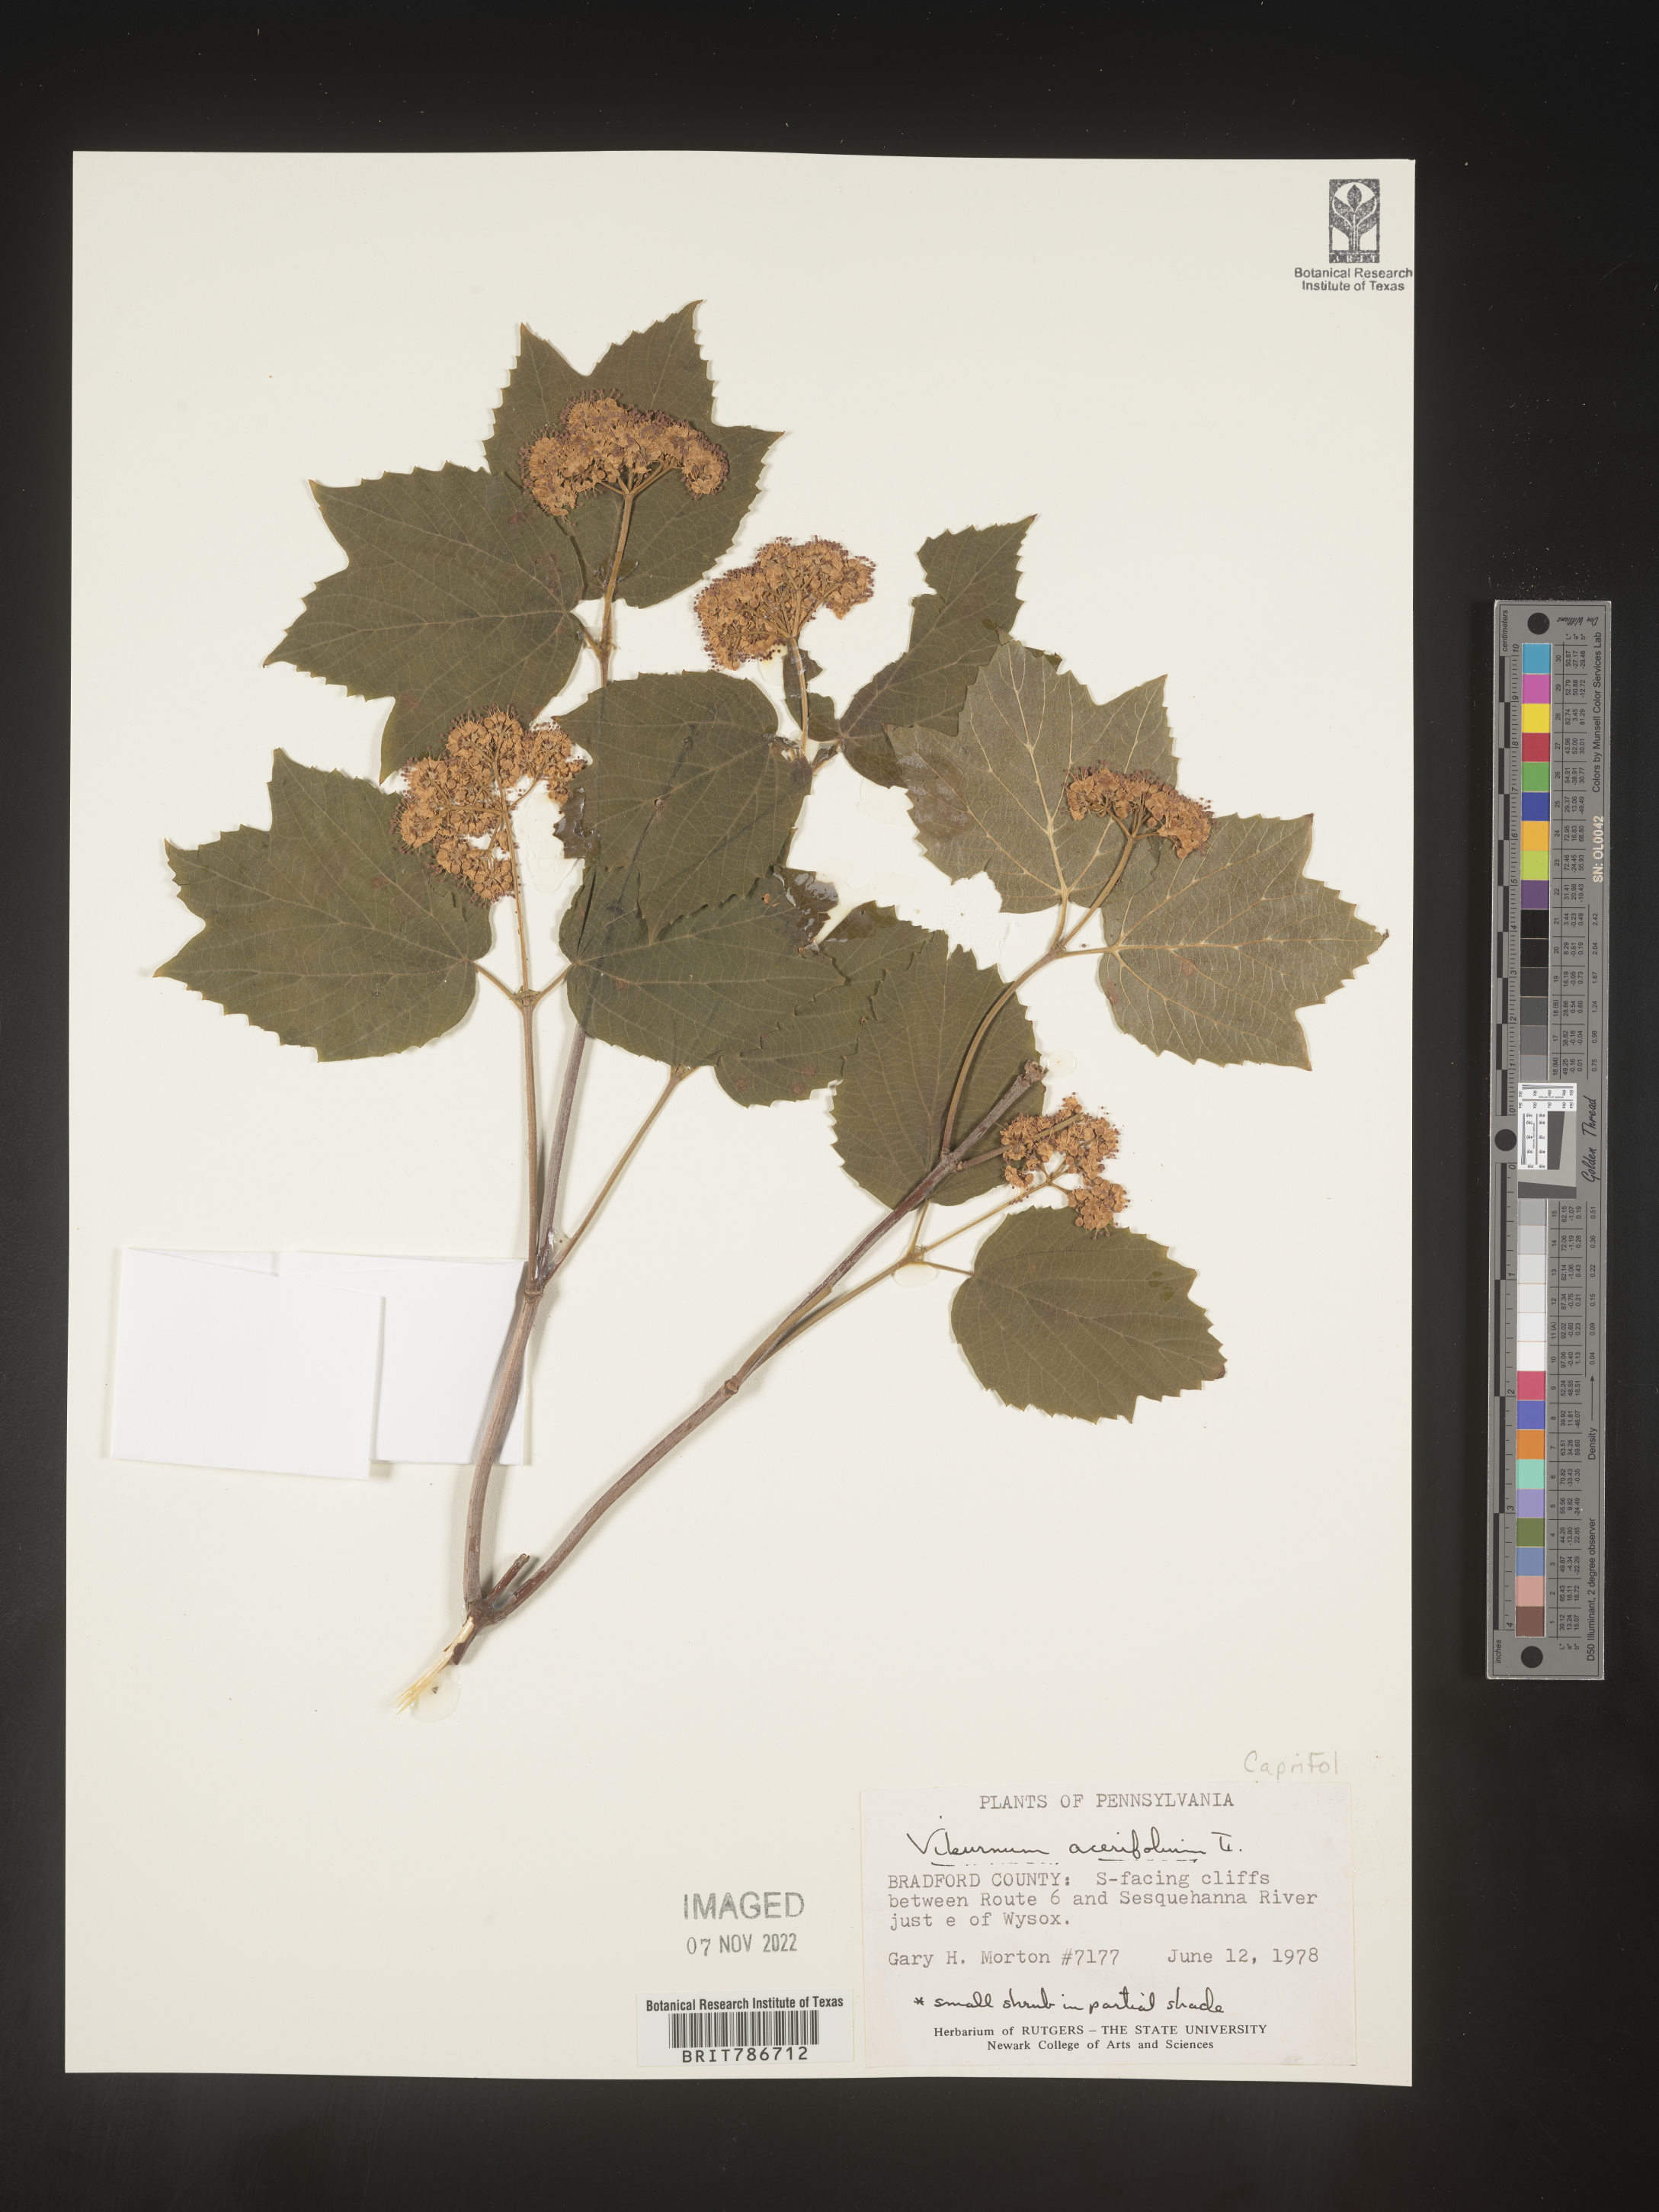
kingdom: Plantae
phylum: Tracheophyta
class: Magnoliopsida
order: Dipsacales
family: Viburnaceae
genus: Viburnum
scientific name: Viburnum acerifolium
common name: Dockmackie
